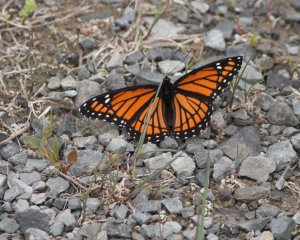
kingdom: Animalia
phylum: Arthropoda
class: Insecta
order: Lepidoptera
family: Nymphalidae
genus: Limenitis
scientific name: Limenitis archippus
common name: Viceroy
